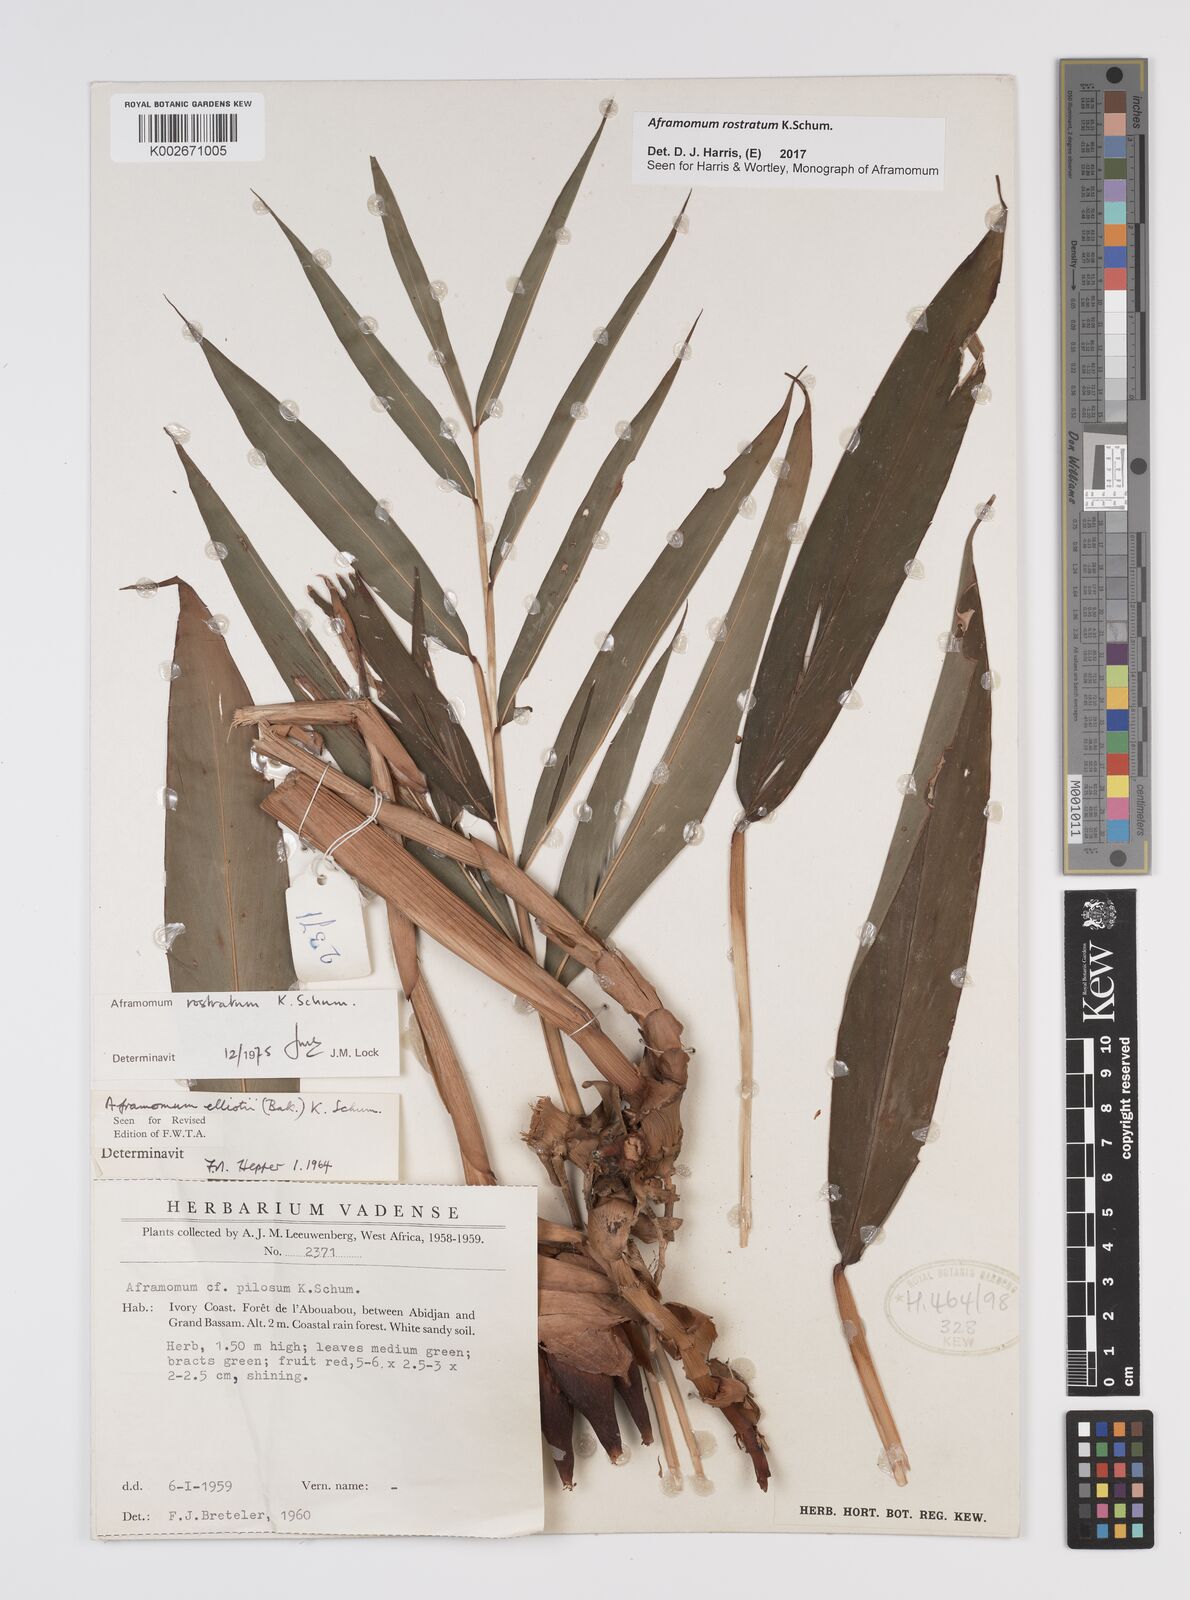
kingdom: Plantae
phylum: Tracheophyta
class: Liliopsida
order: Zingiberales
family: Zingiberaceae
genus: Aframomum
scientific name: Aframomum rostratum
